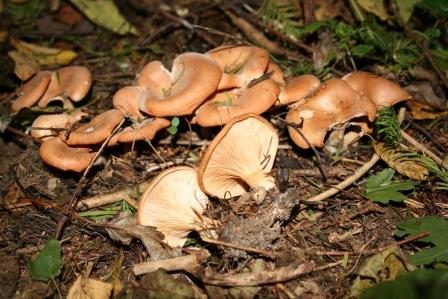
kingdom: Fungi
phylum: Basidiomycota
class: Agaricomycetes
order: Agaricales
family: Tricholomataceae
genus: Paralepista
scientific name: Paralepista flaccida
